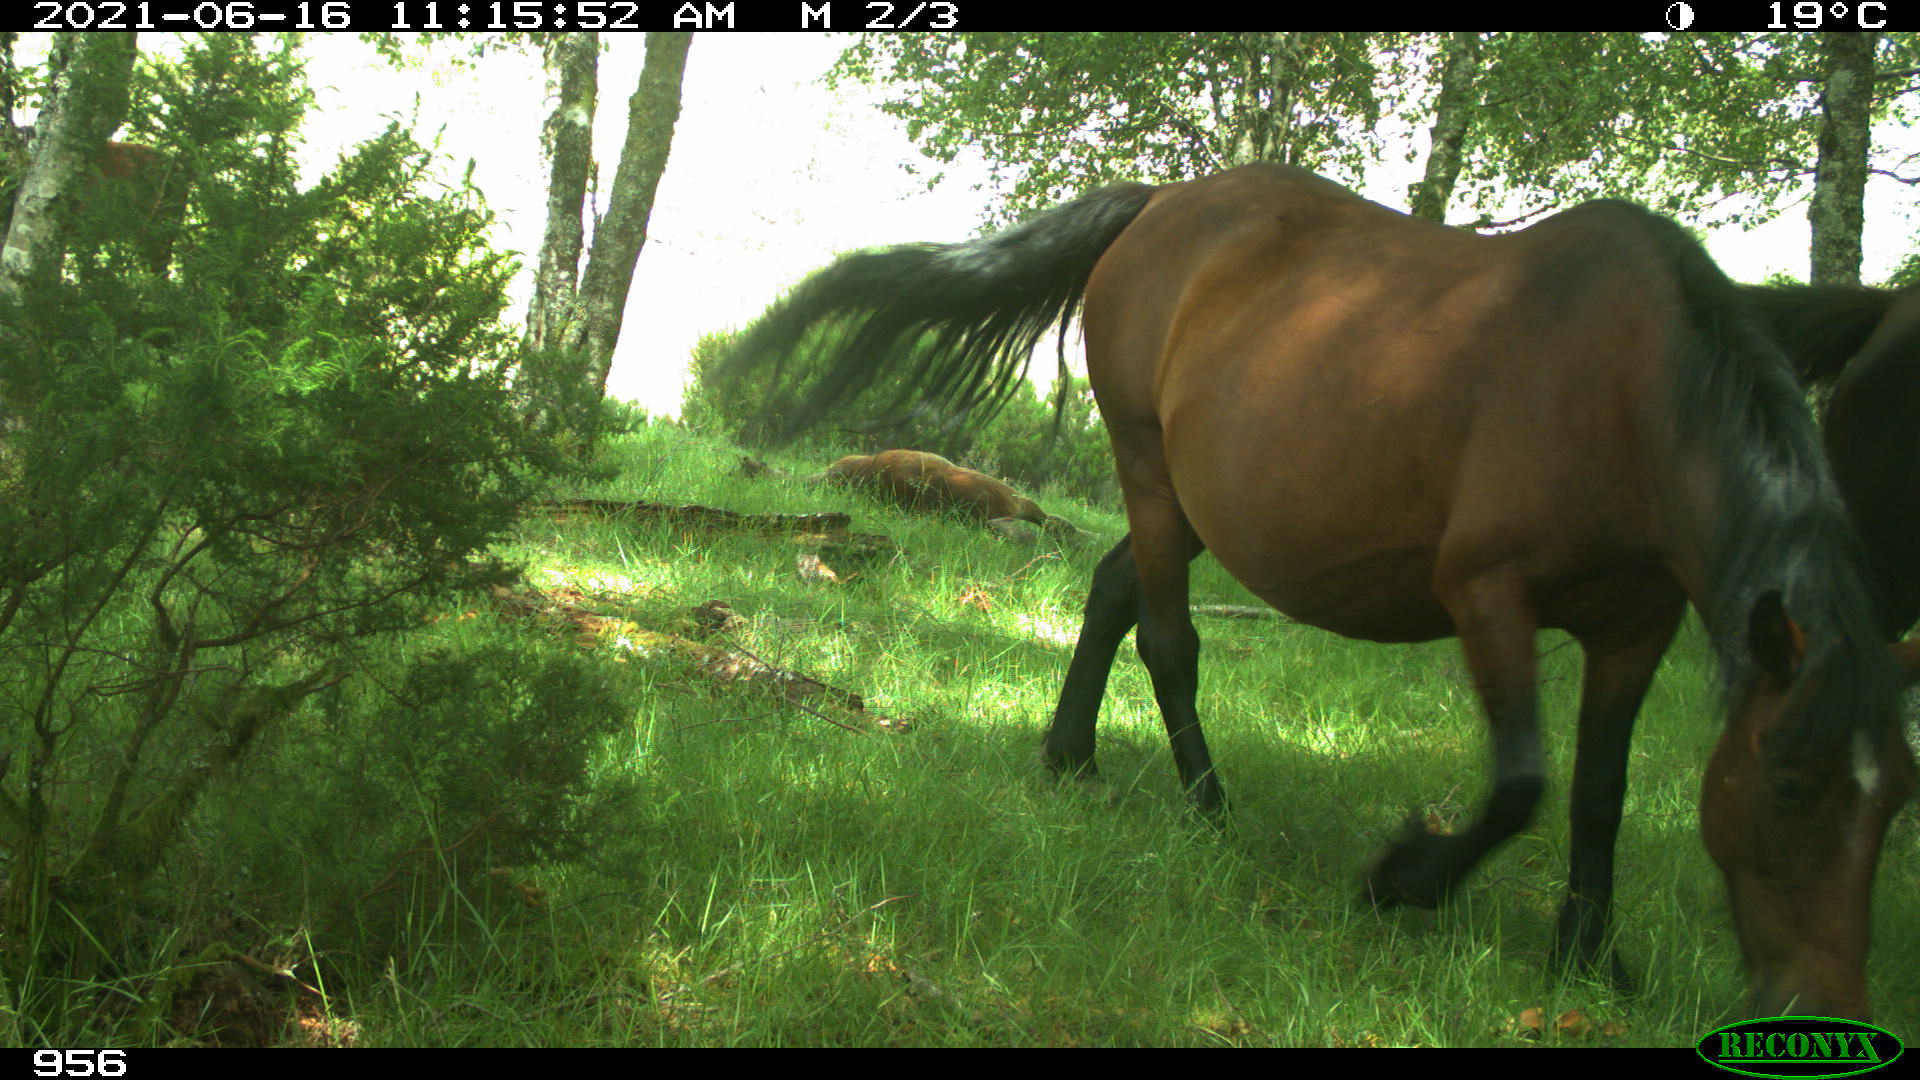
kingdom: Animalia
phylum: Chordata
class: Mammalia
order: Perissodactyla
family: Equidae
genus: Equus
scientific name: Equus caballus
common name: Horse
